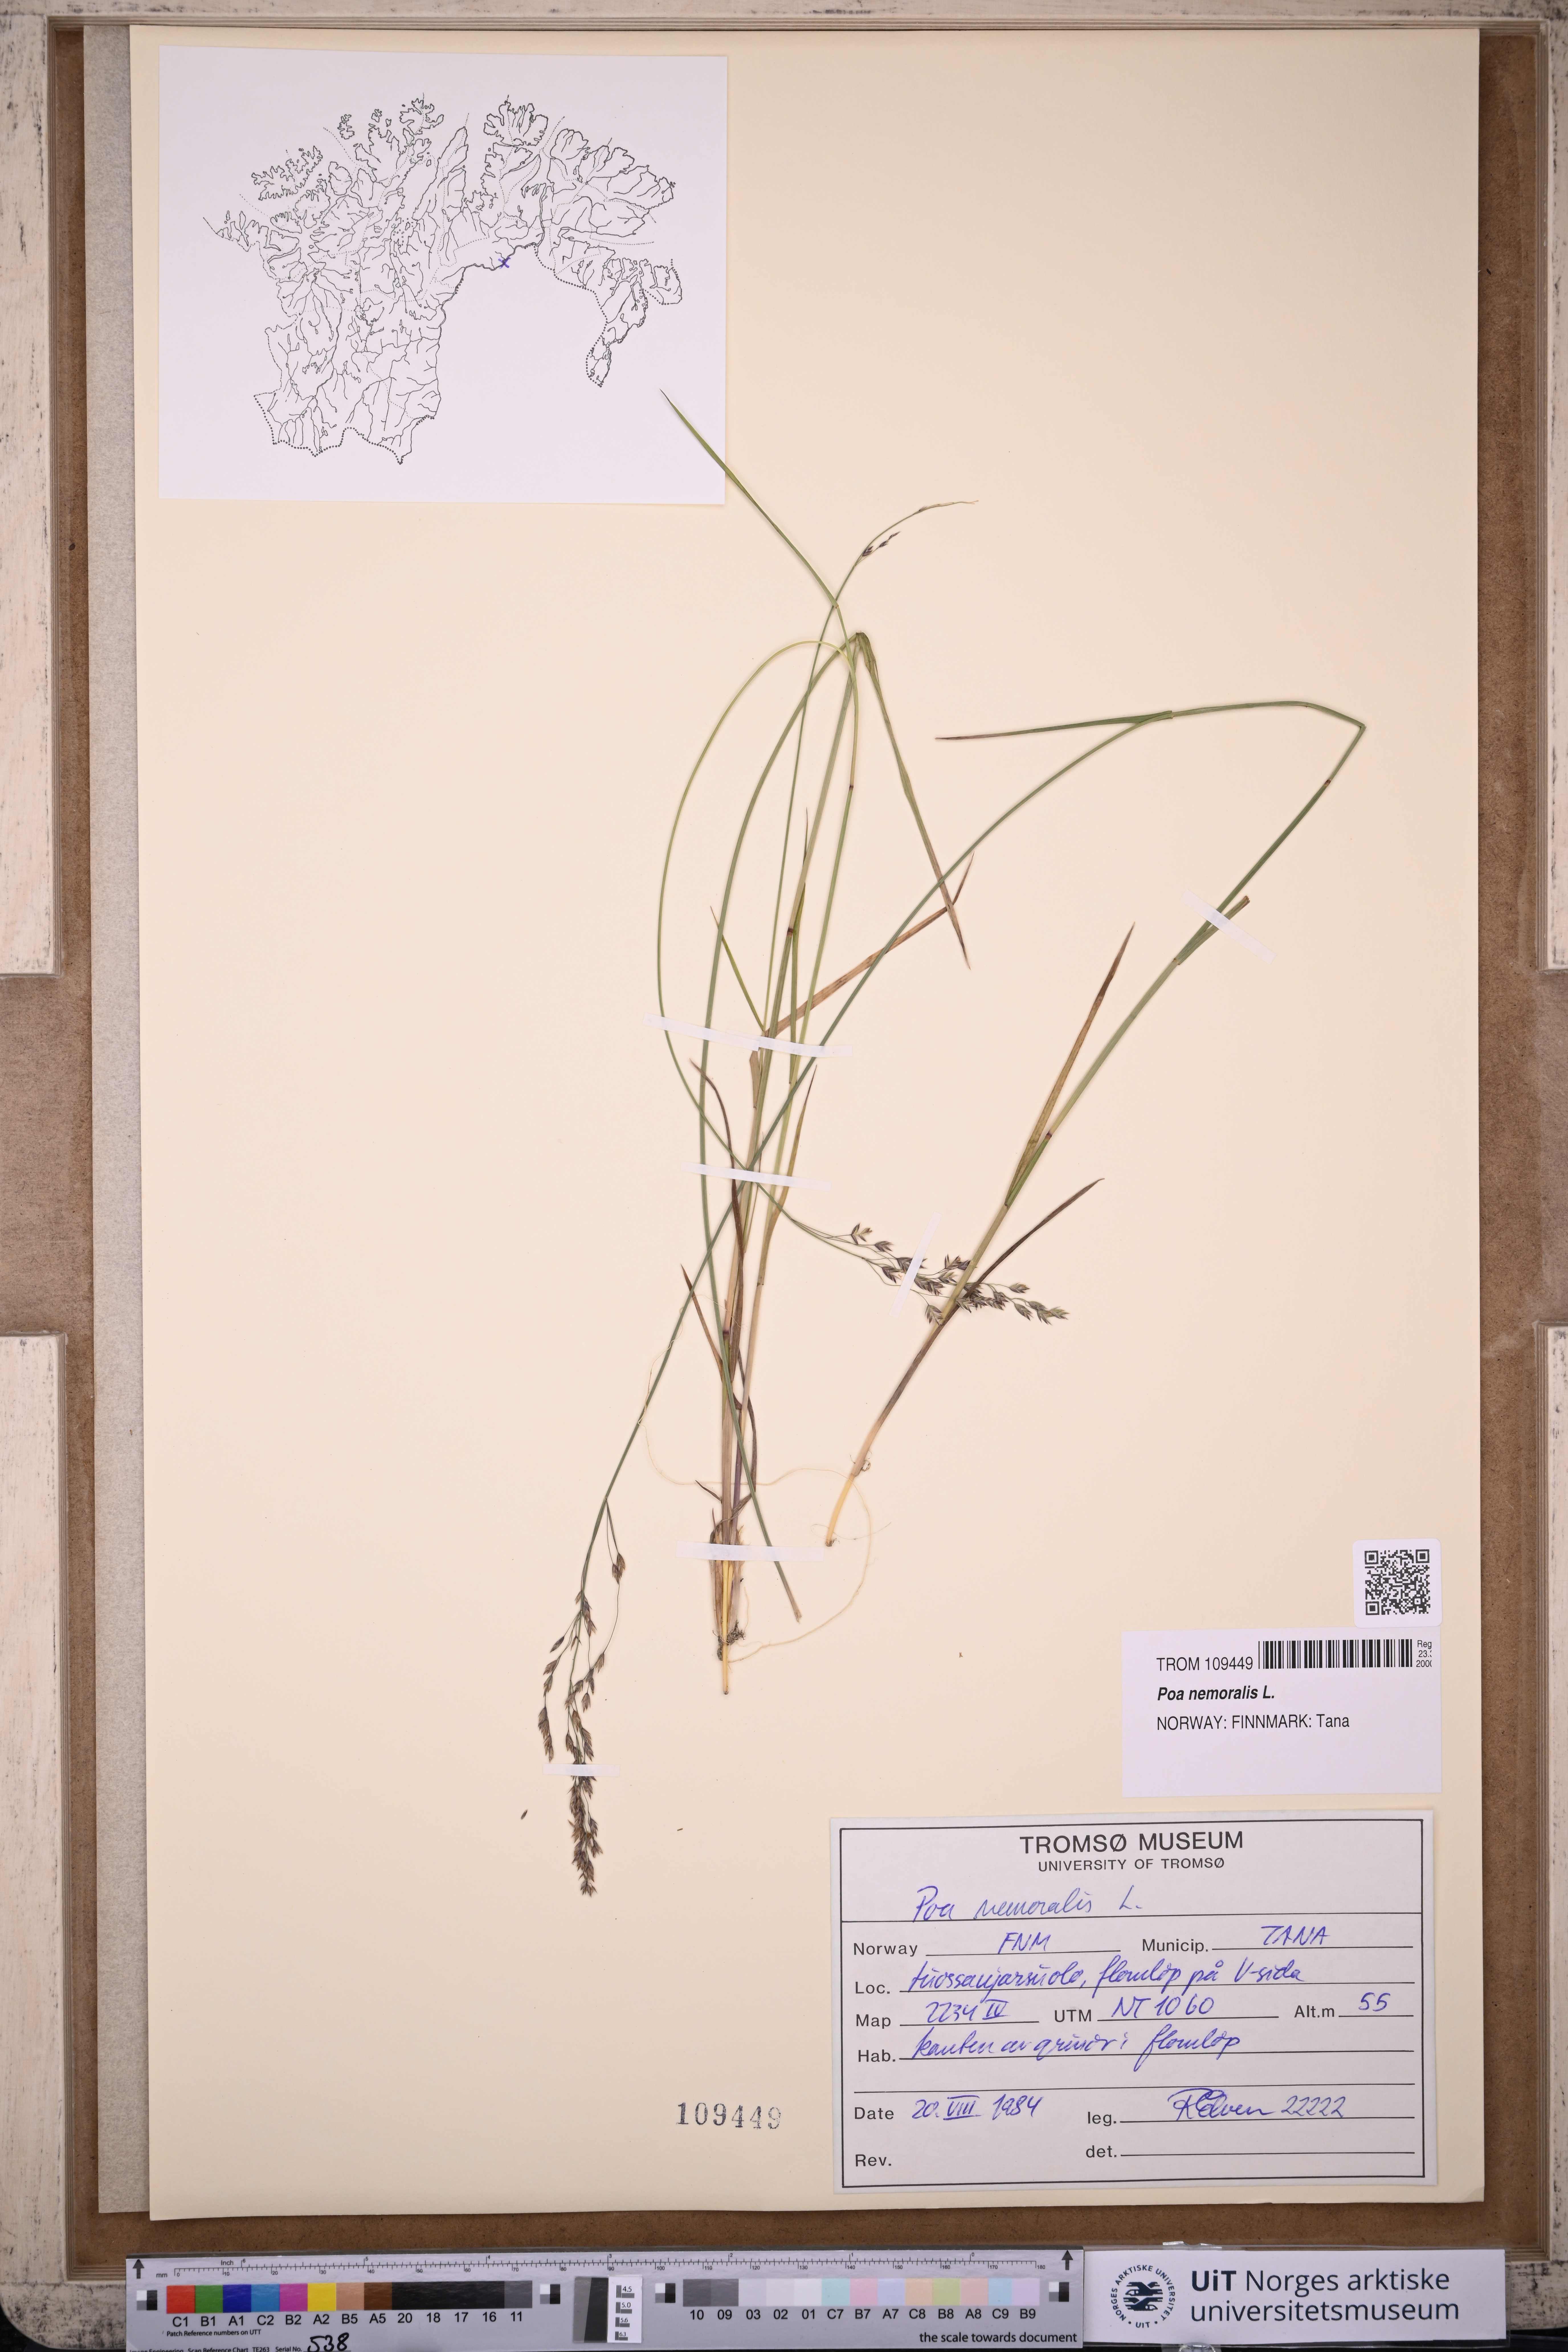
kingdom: Plantae
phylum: Tracheophyta
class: Liliopsida
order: Poales
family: Poaceae
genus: Poa
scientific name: Poa nemoralis
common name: Wood bluegrass
